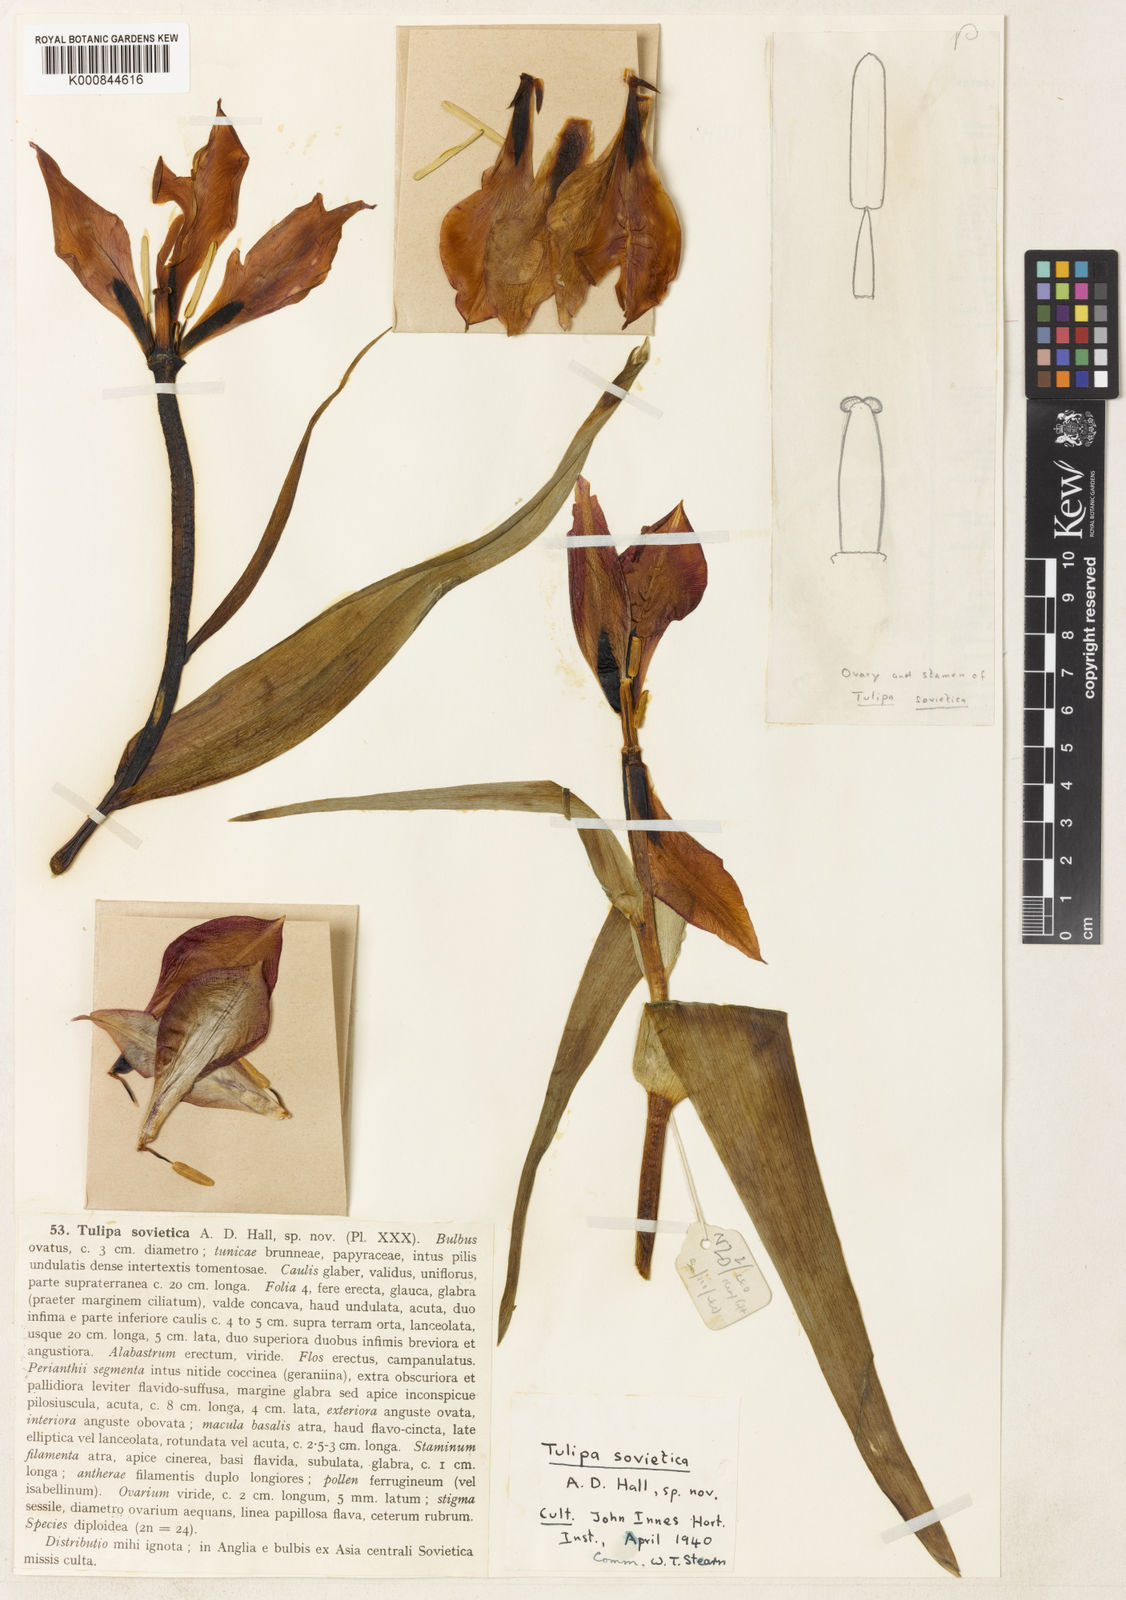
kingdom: Plantae
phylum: Tracheophyta
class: Liliopsida
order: Liliales
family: Liliaceae
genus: Tulipa
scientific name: Tulipa hoogiana
